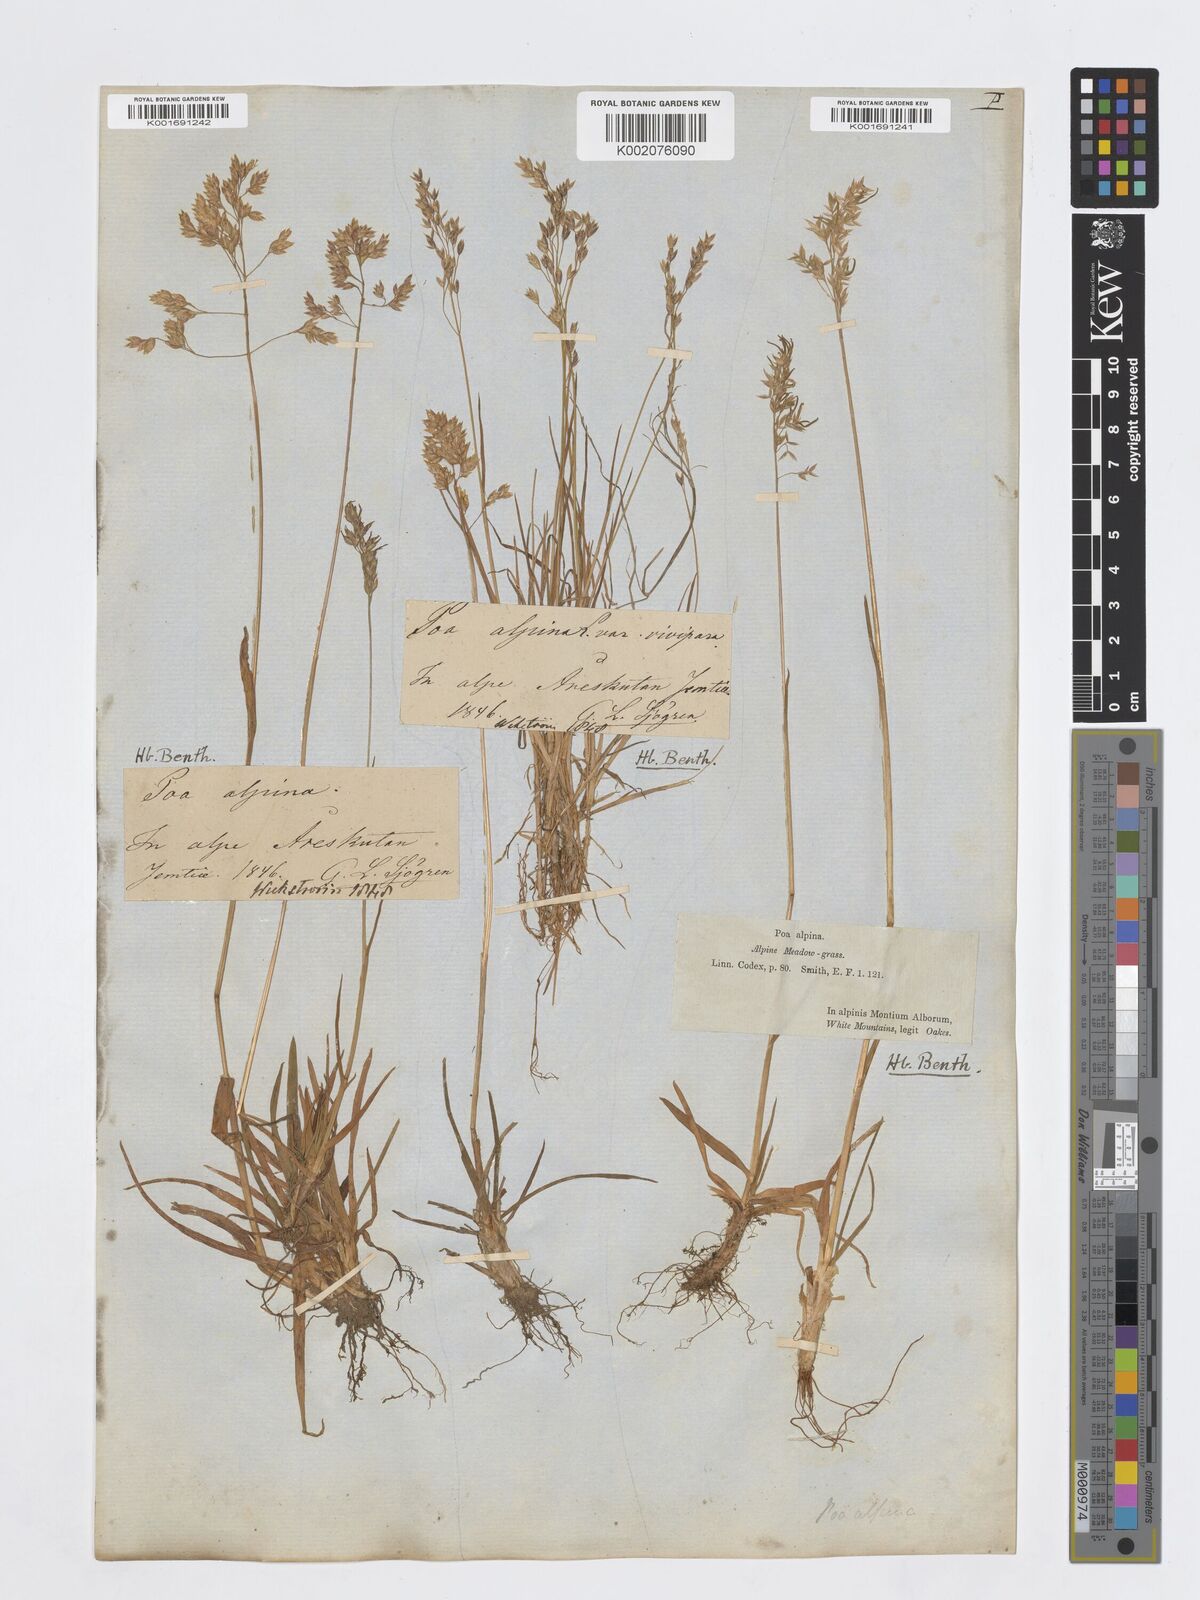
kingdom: Plantae
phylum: Tracheophyta
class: Liliopsida
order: Poales
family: Poaceae
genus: Poa
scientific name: Poa alpina
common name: Alpine bluegrass
